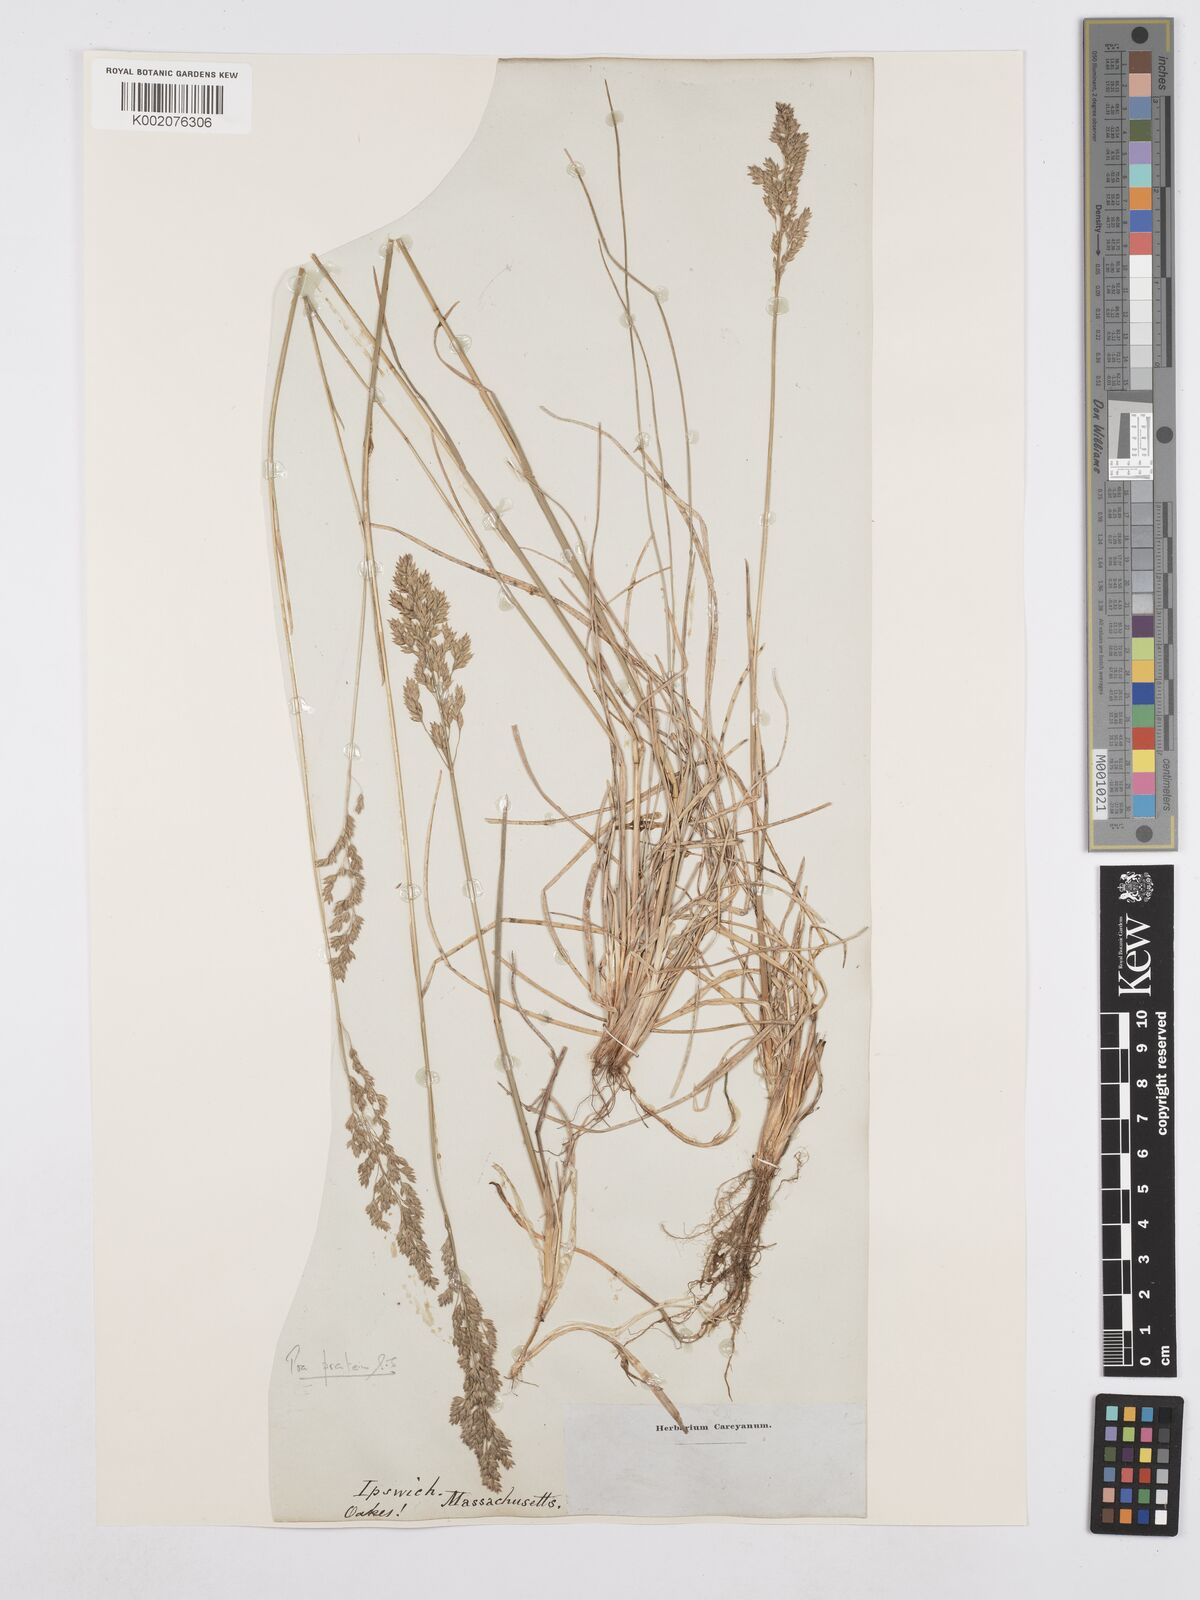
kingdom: Plantae
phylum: Tracheophyta
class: Liliopsida
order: Poales
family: Poaceae
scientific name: Poaceae
